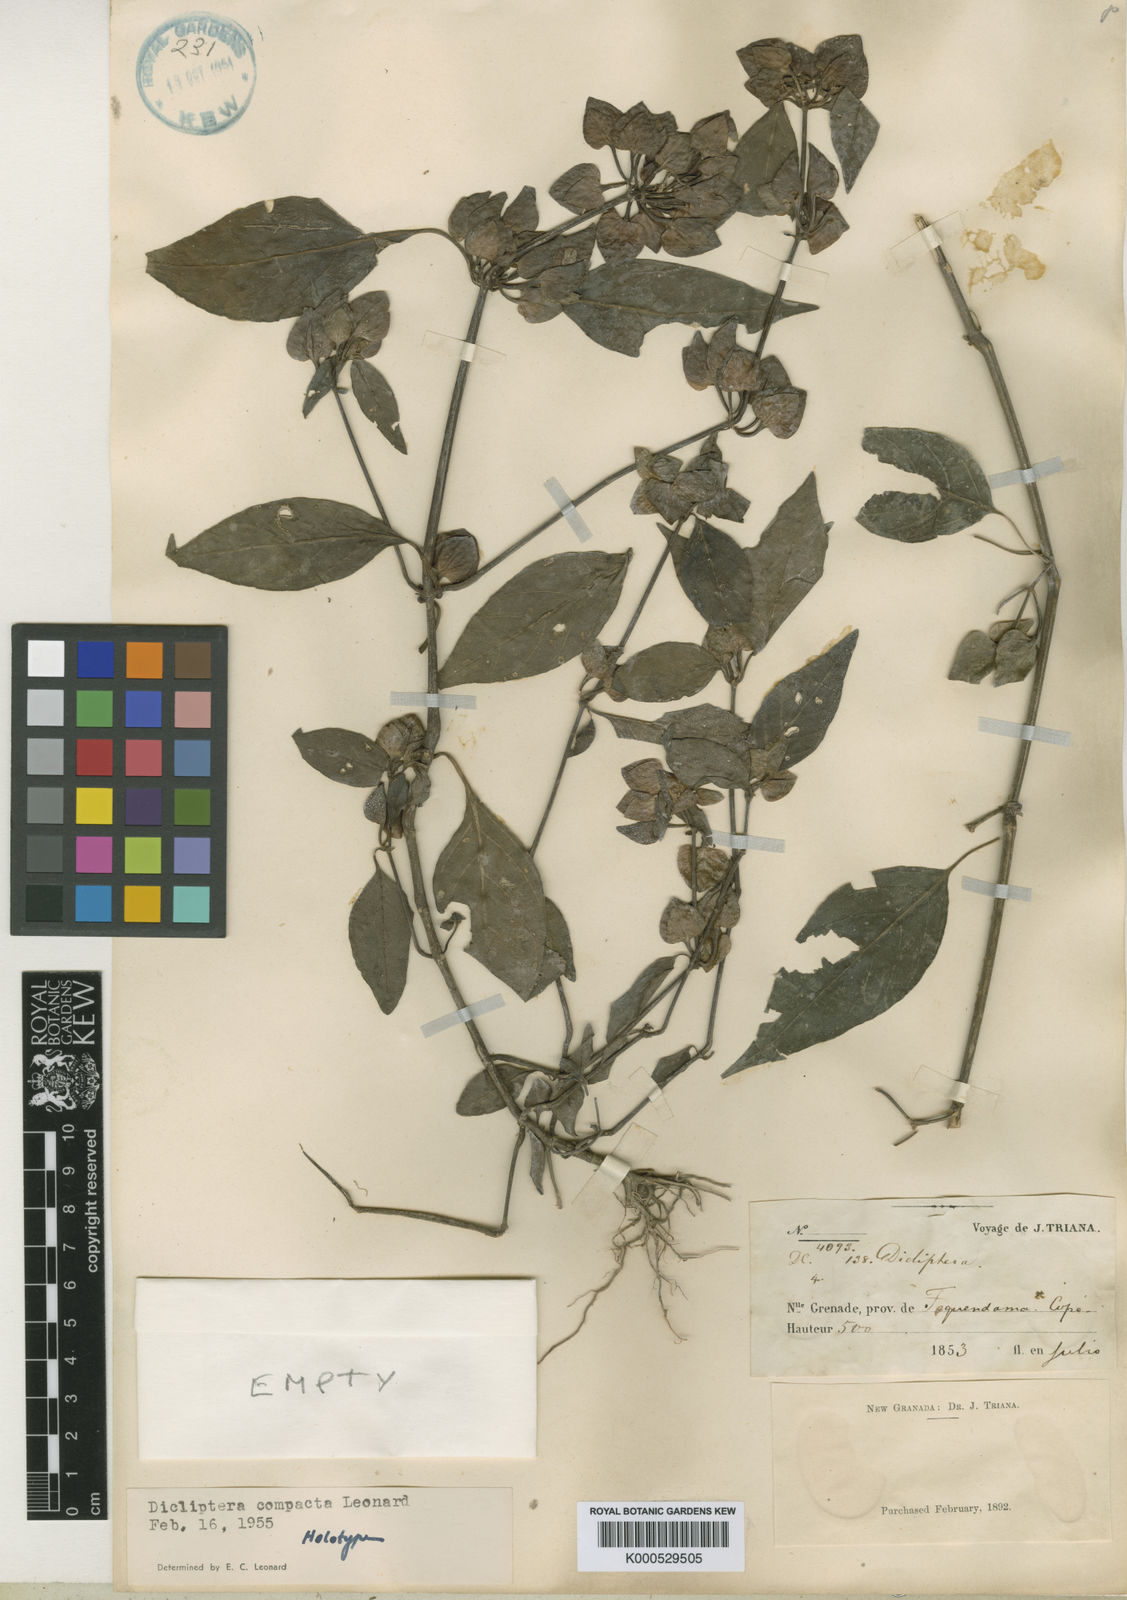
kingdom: Plantae
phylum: Tracheophyta
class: Magnoliopsida
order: Lamiales
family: Acanthaceae
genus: Dicliptera
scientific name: Dicliptera compacta
